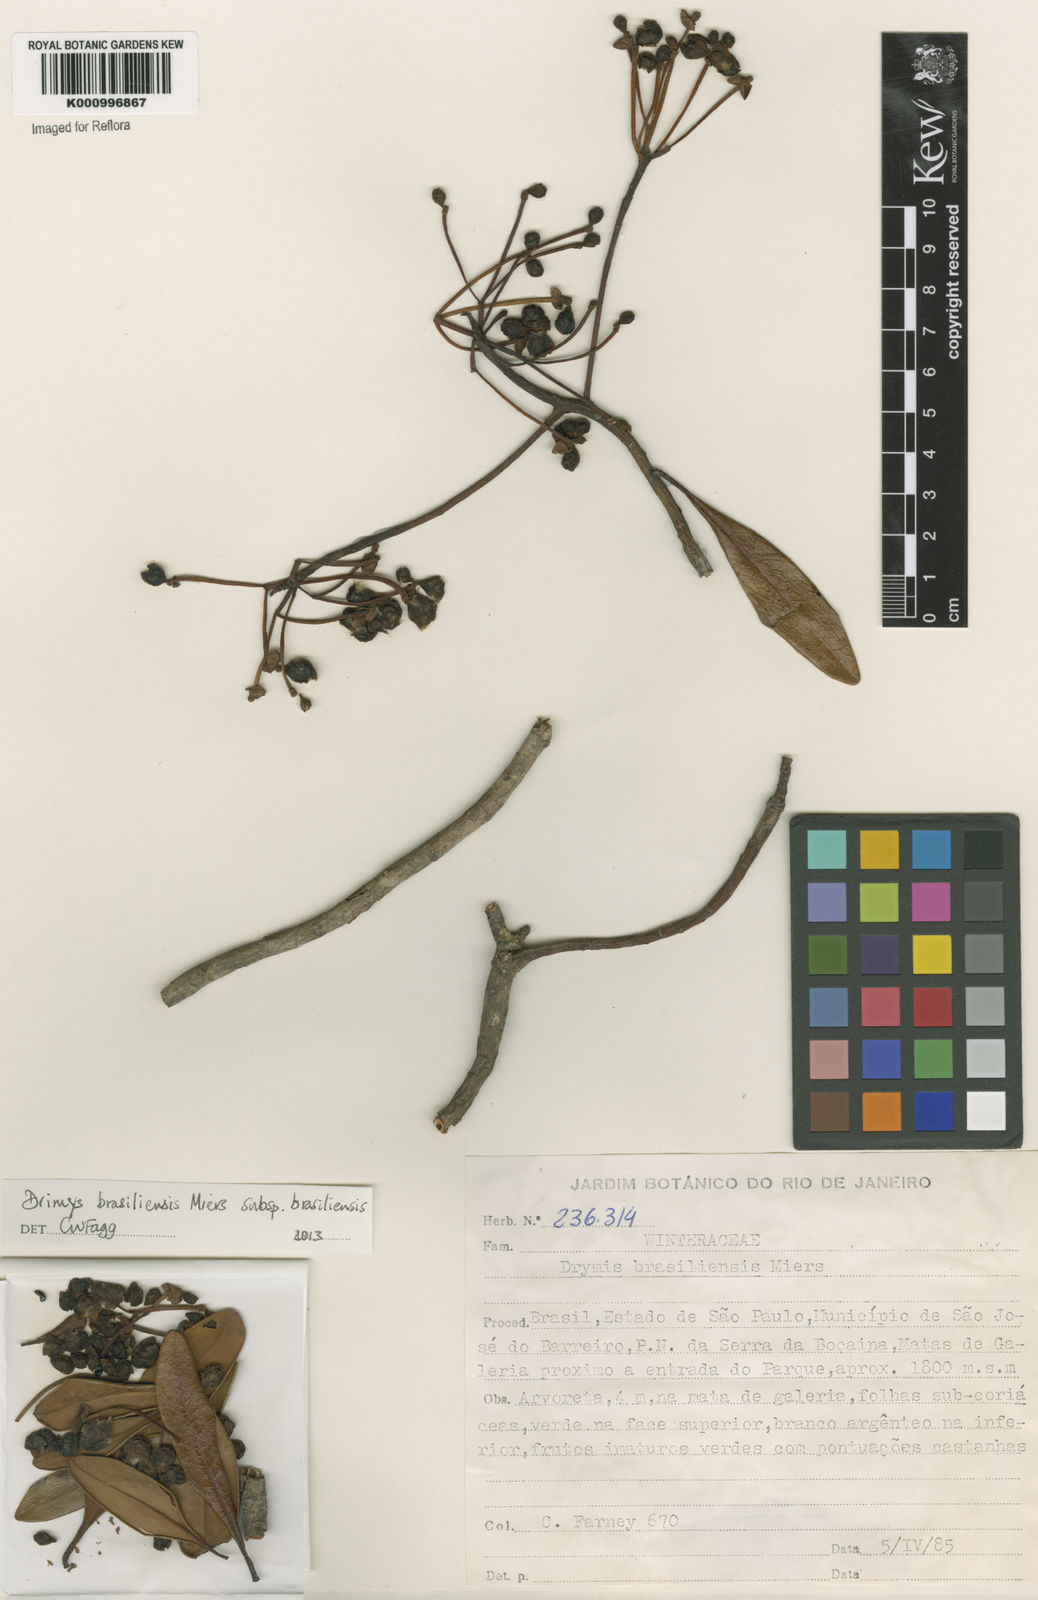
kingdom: Plantae
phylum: Tracheophyta
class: Magnoliopsida
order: Canellales
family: Winteraceae
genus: Drimys
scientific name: Drimys brasiliensis
